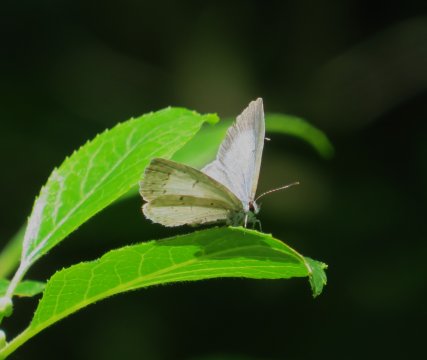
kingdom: Animalia
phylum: Arthropoda
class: Insecta
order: Lepidoptera
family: Lycaenidae
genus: Cyaniris
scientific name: Cyaniris neglecta
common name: Summer Azure
